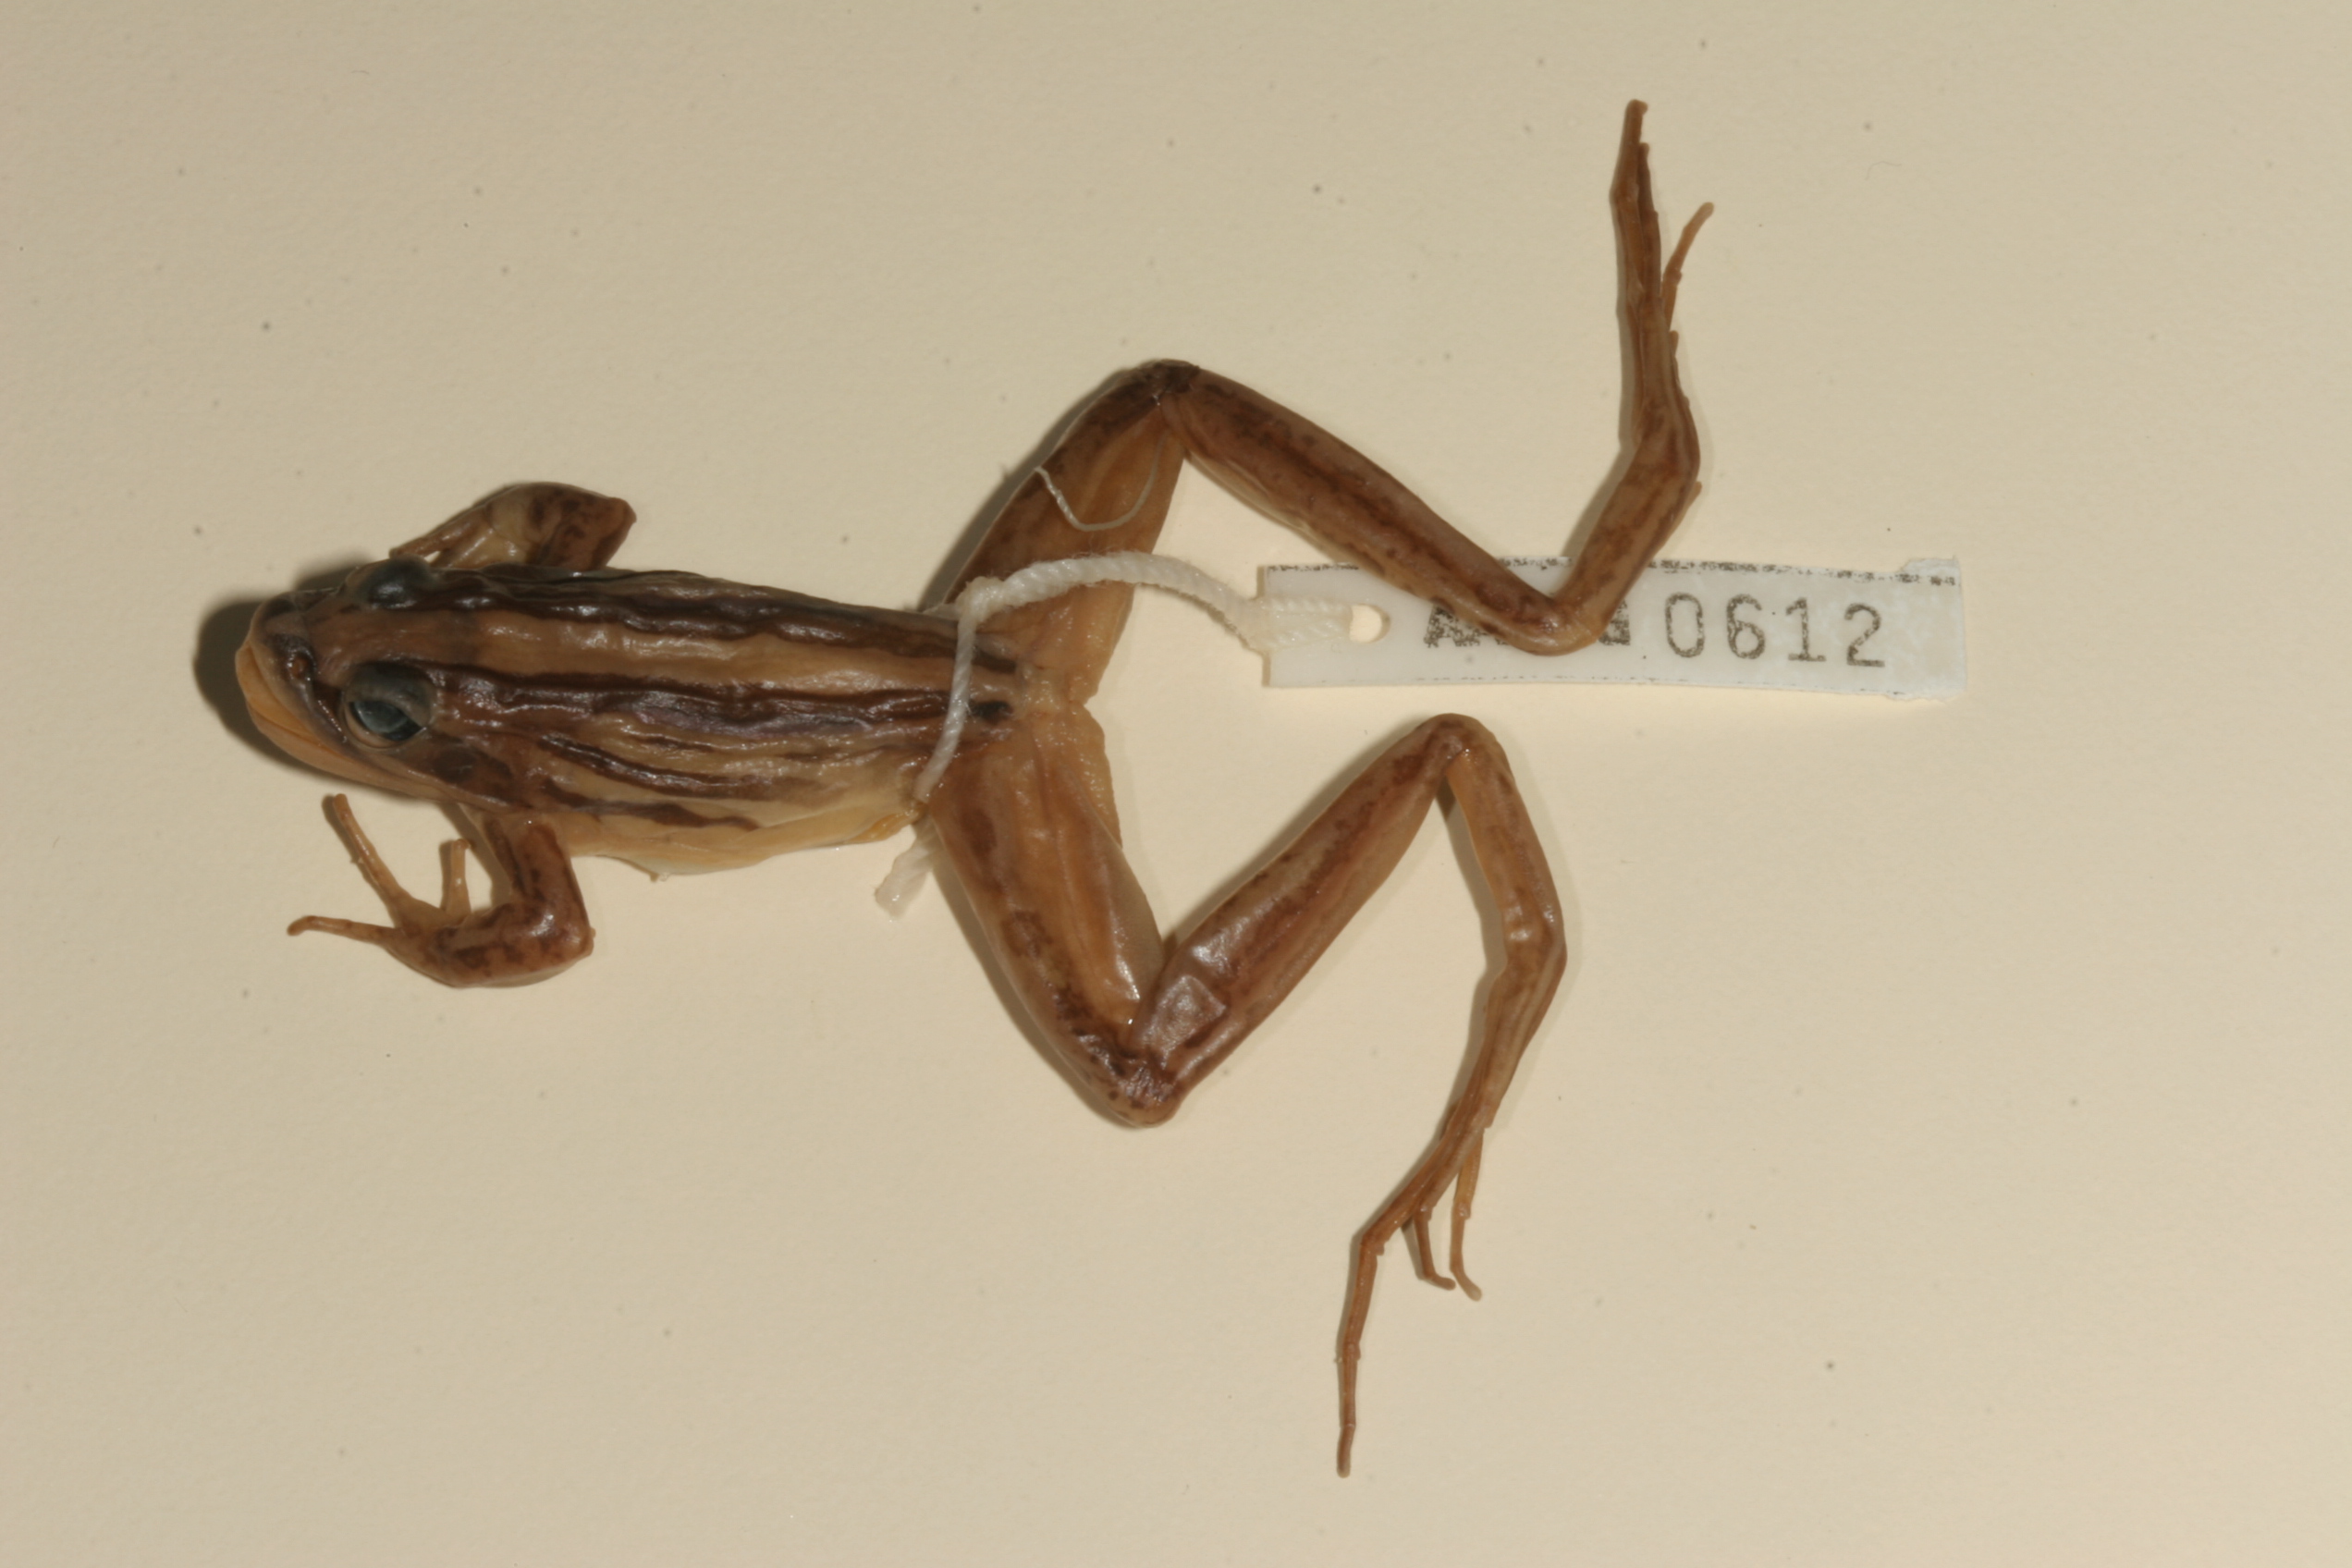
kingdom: Animalia
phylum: Chordata
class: Amphibia
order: Anura
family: Pyxicephalidae
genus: Strongylopus
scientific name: Strongylopus fasciatus
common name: Striped stream frog
